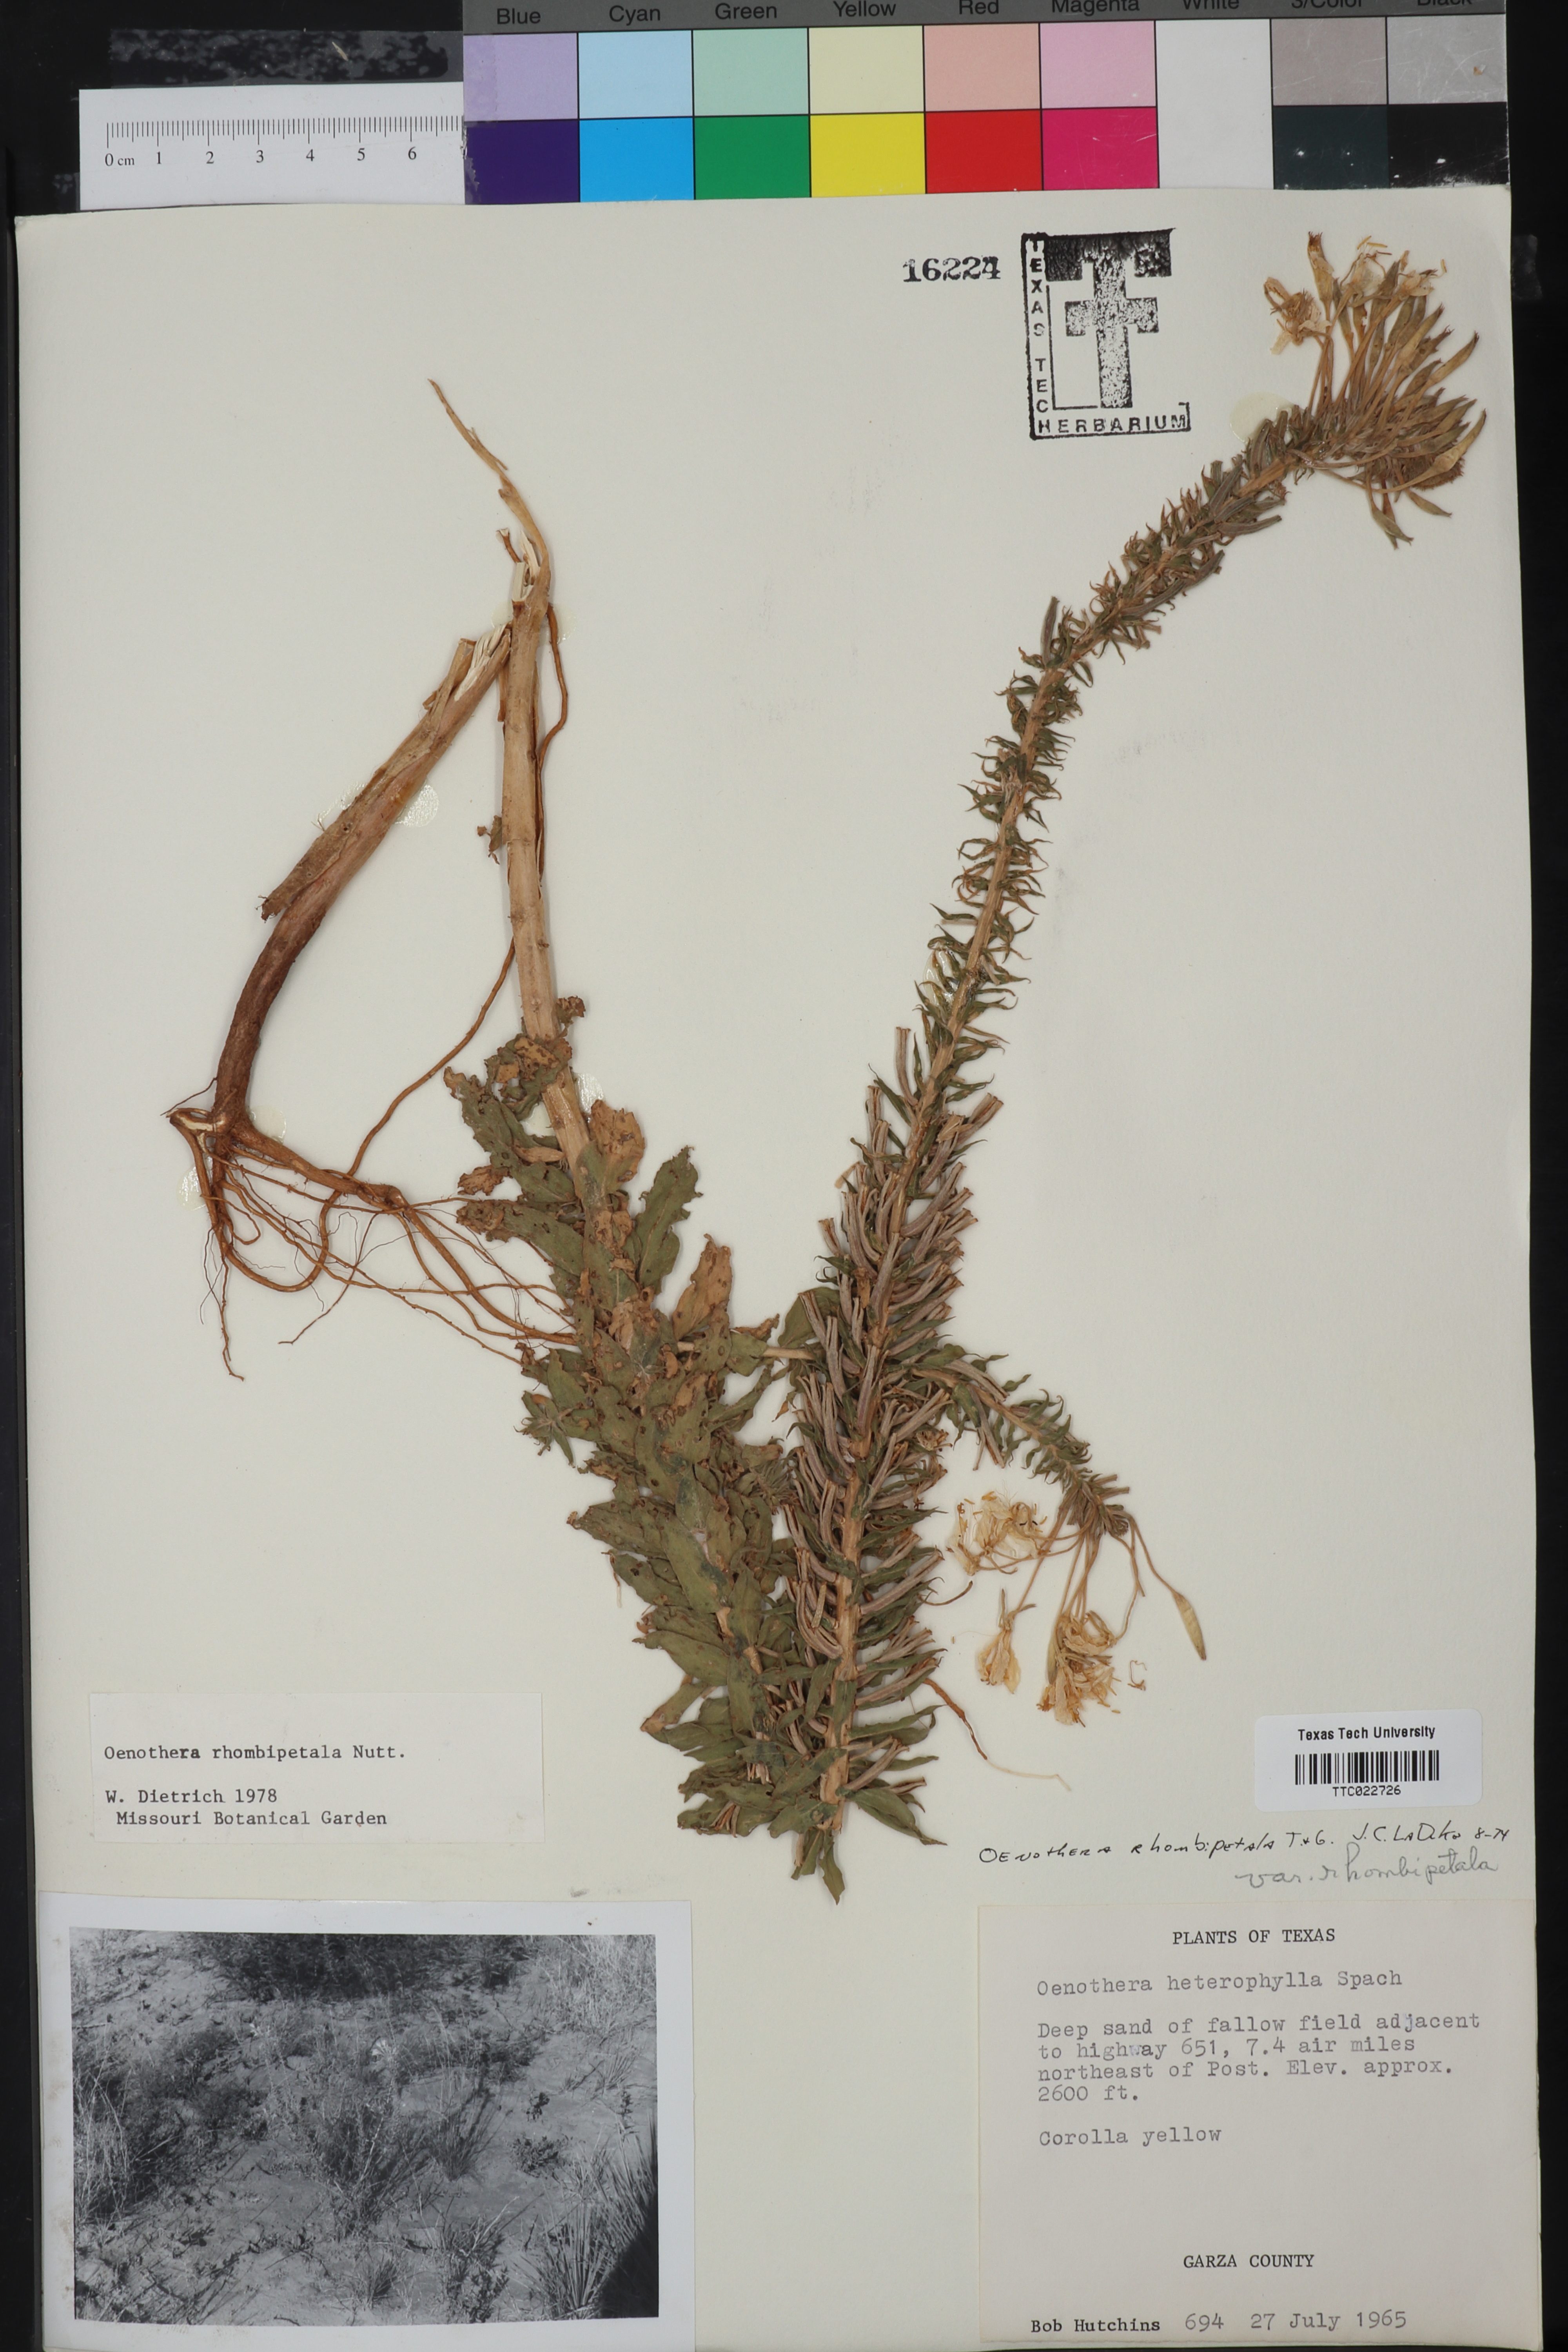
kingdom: Plantae
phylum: Tracheophyta
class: Magnoliopsida
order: Myrtales
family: Onagraceae
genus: Camissonia
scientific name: Camissonia dentata
